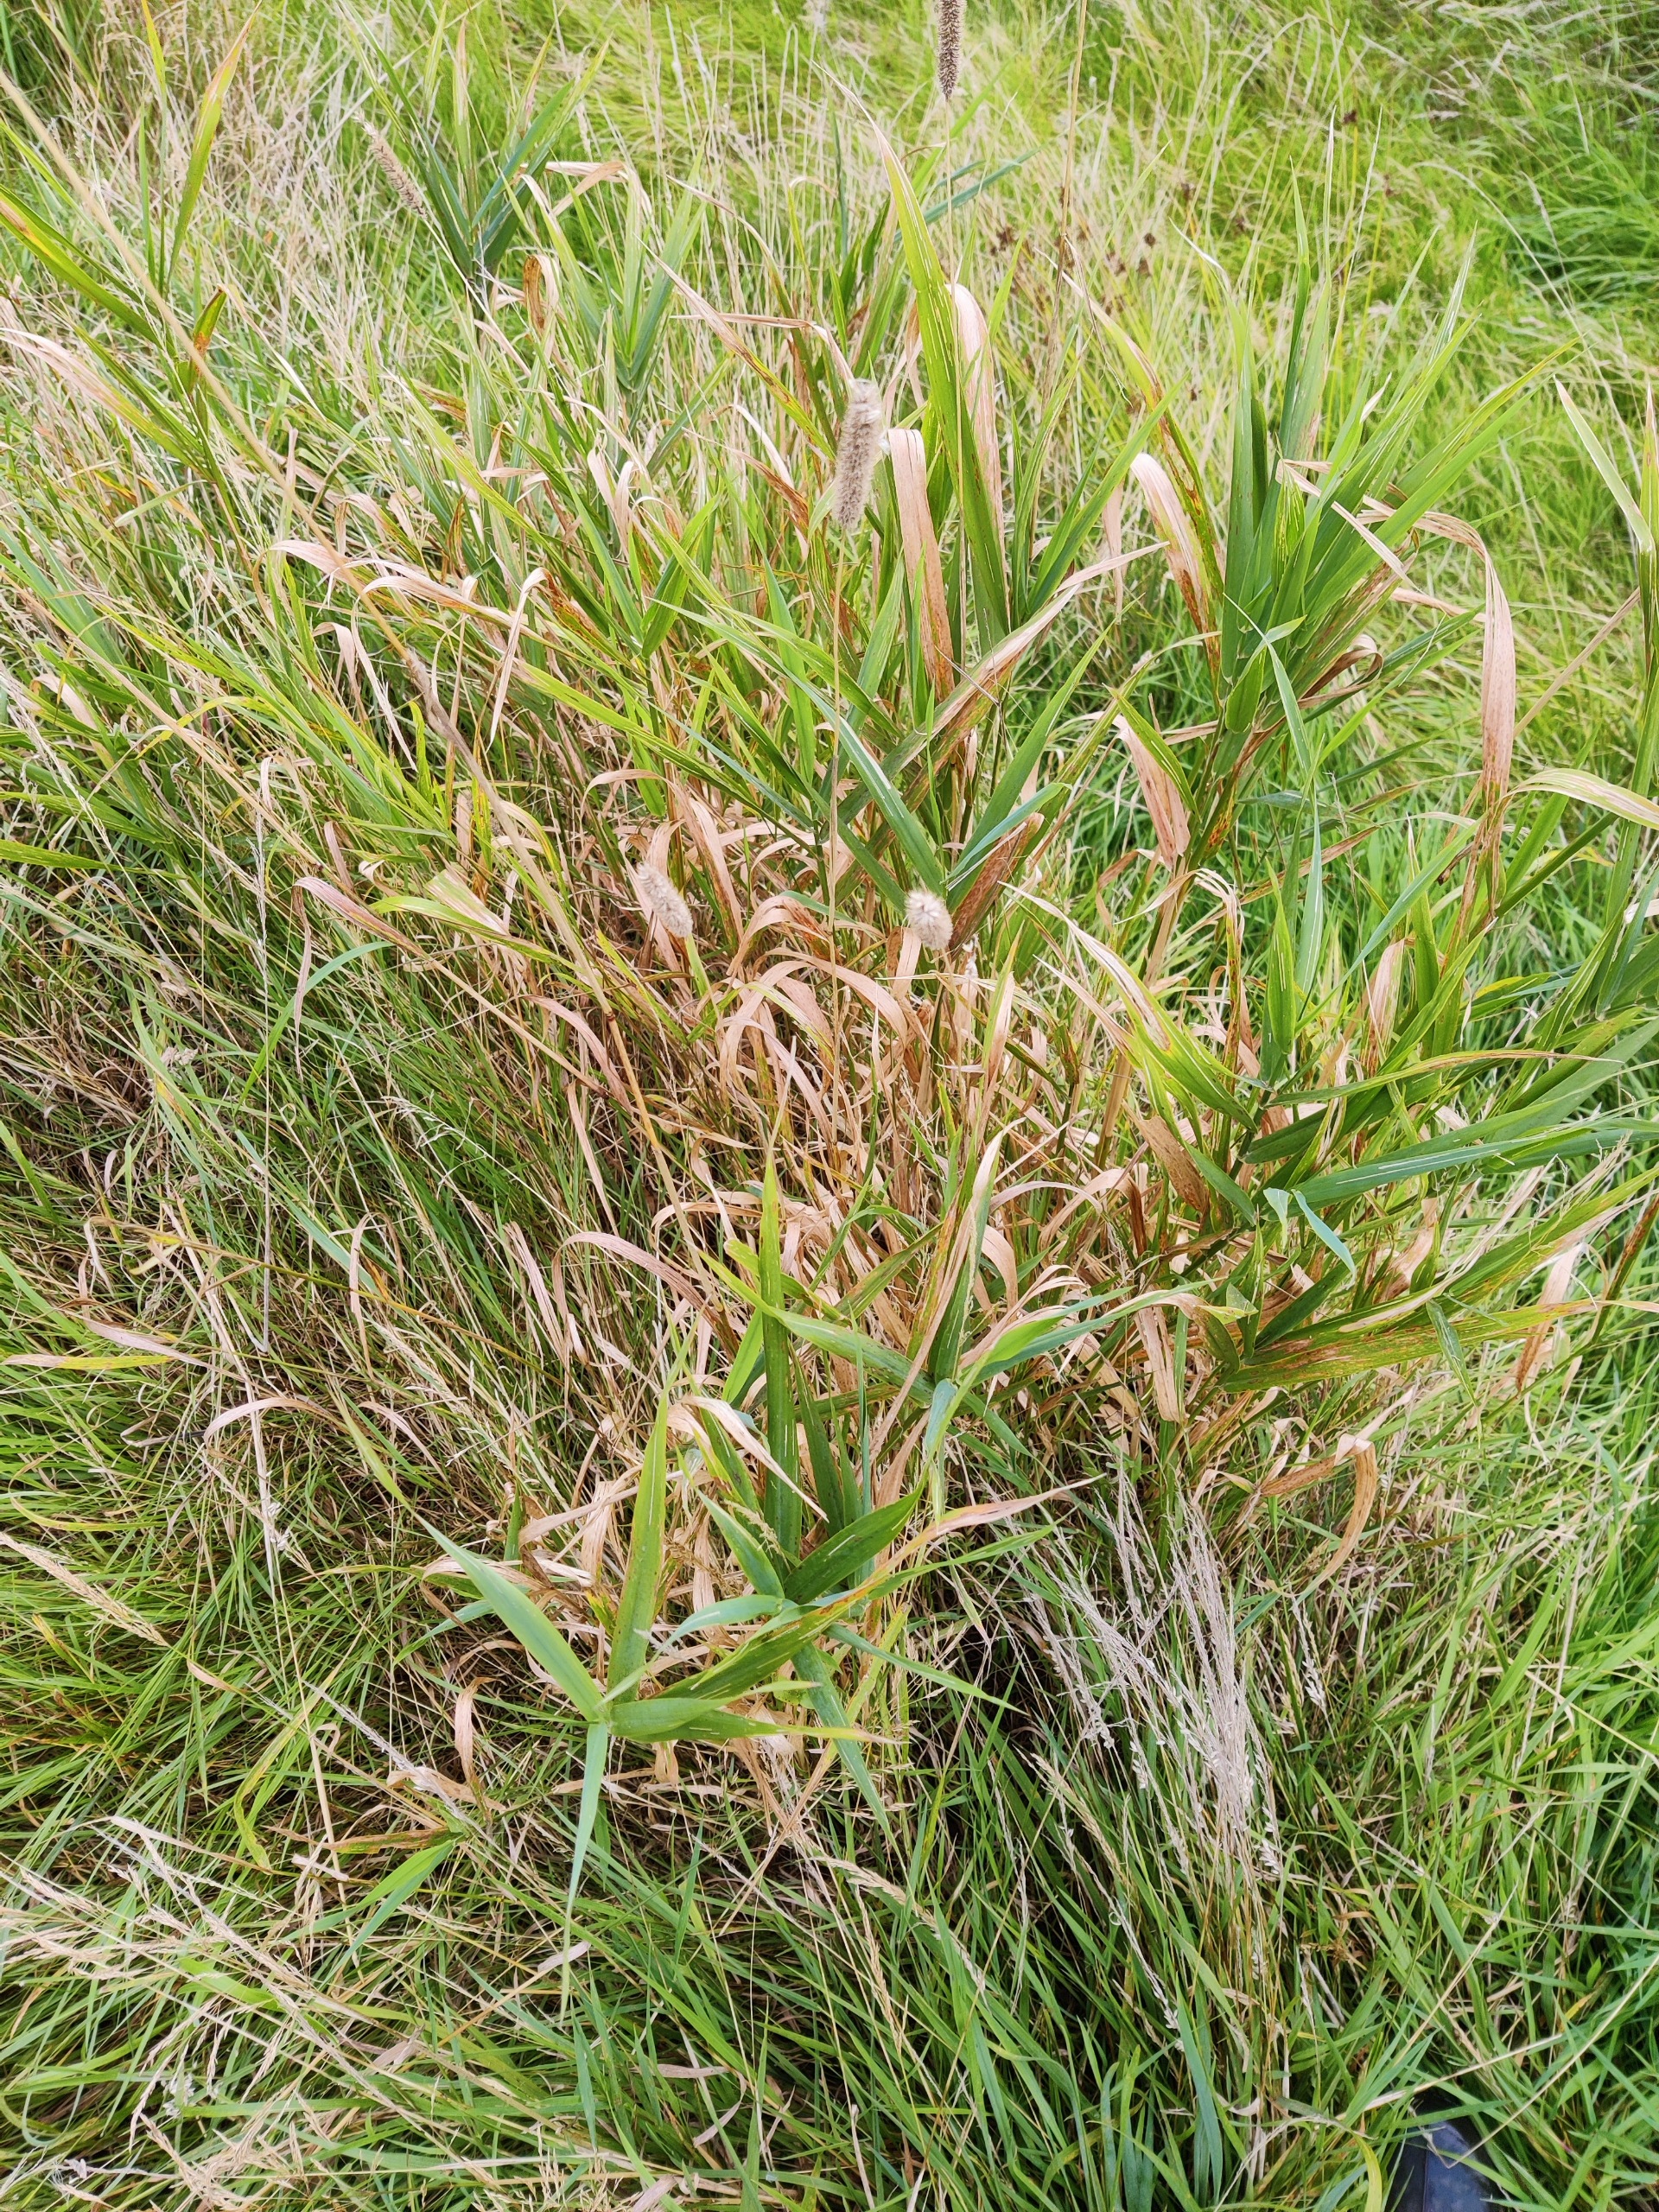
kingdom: Plantae
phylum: Tracheophyta
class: Liliopsida
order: Poales
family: Poaceae
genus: Phleum
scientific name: Phleum pratense
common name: Eng-rottehale
